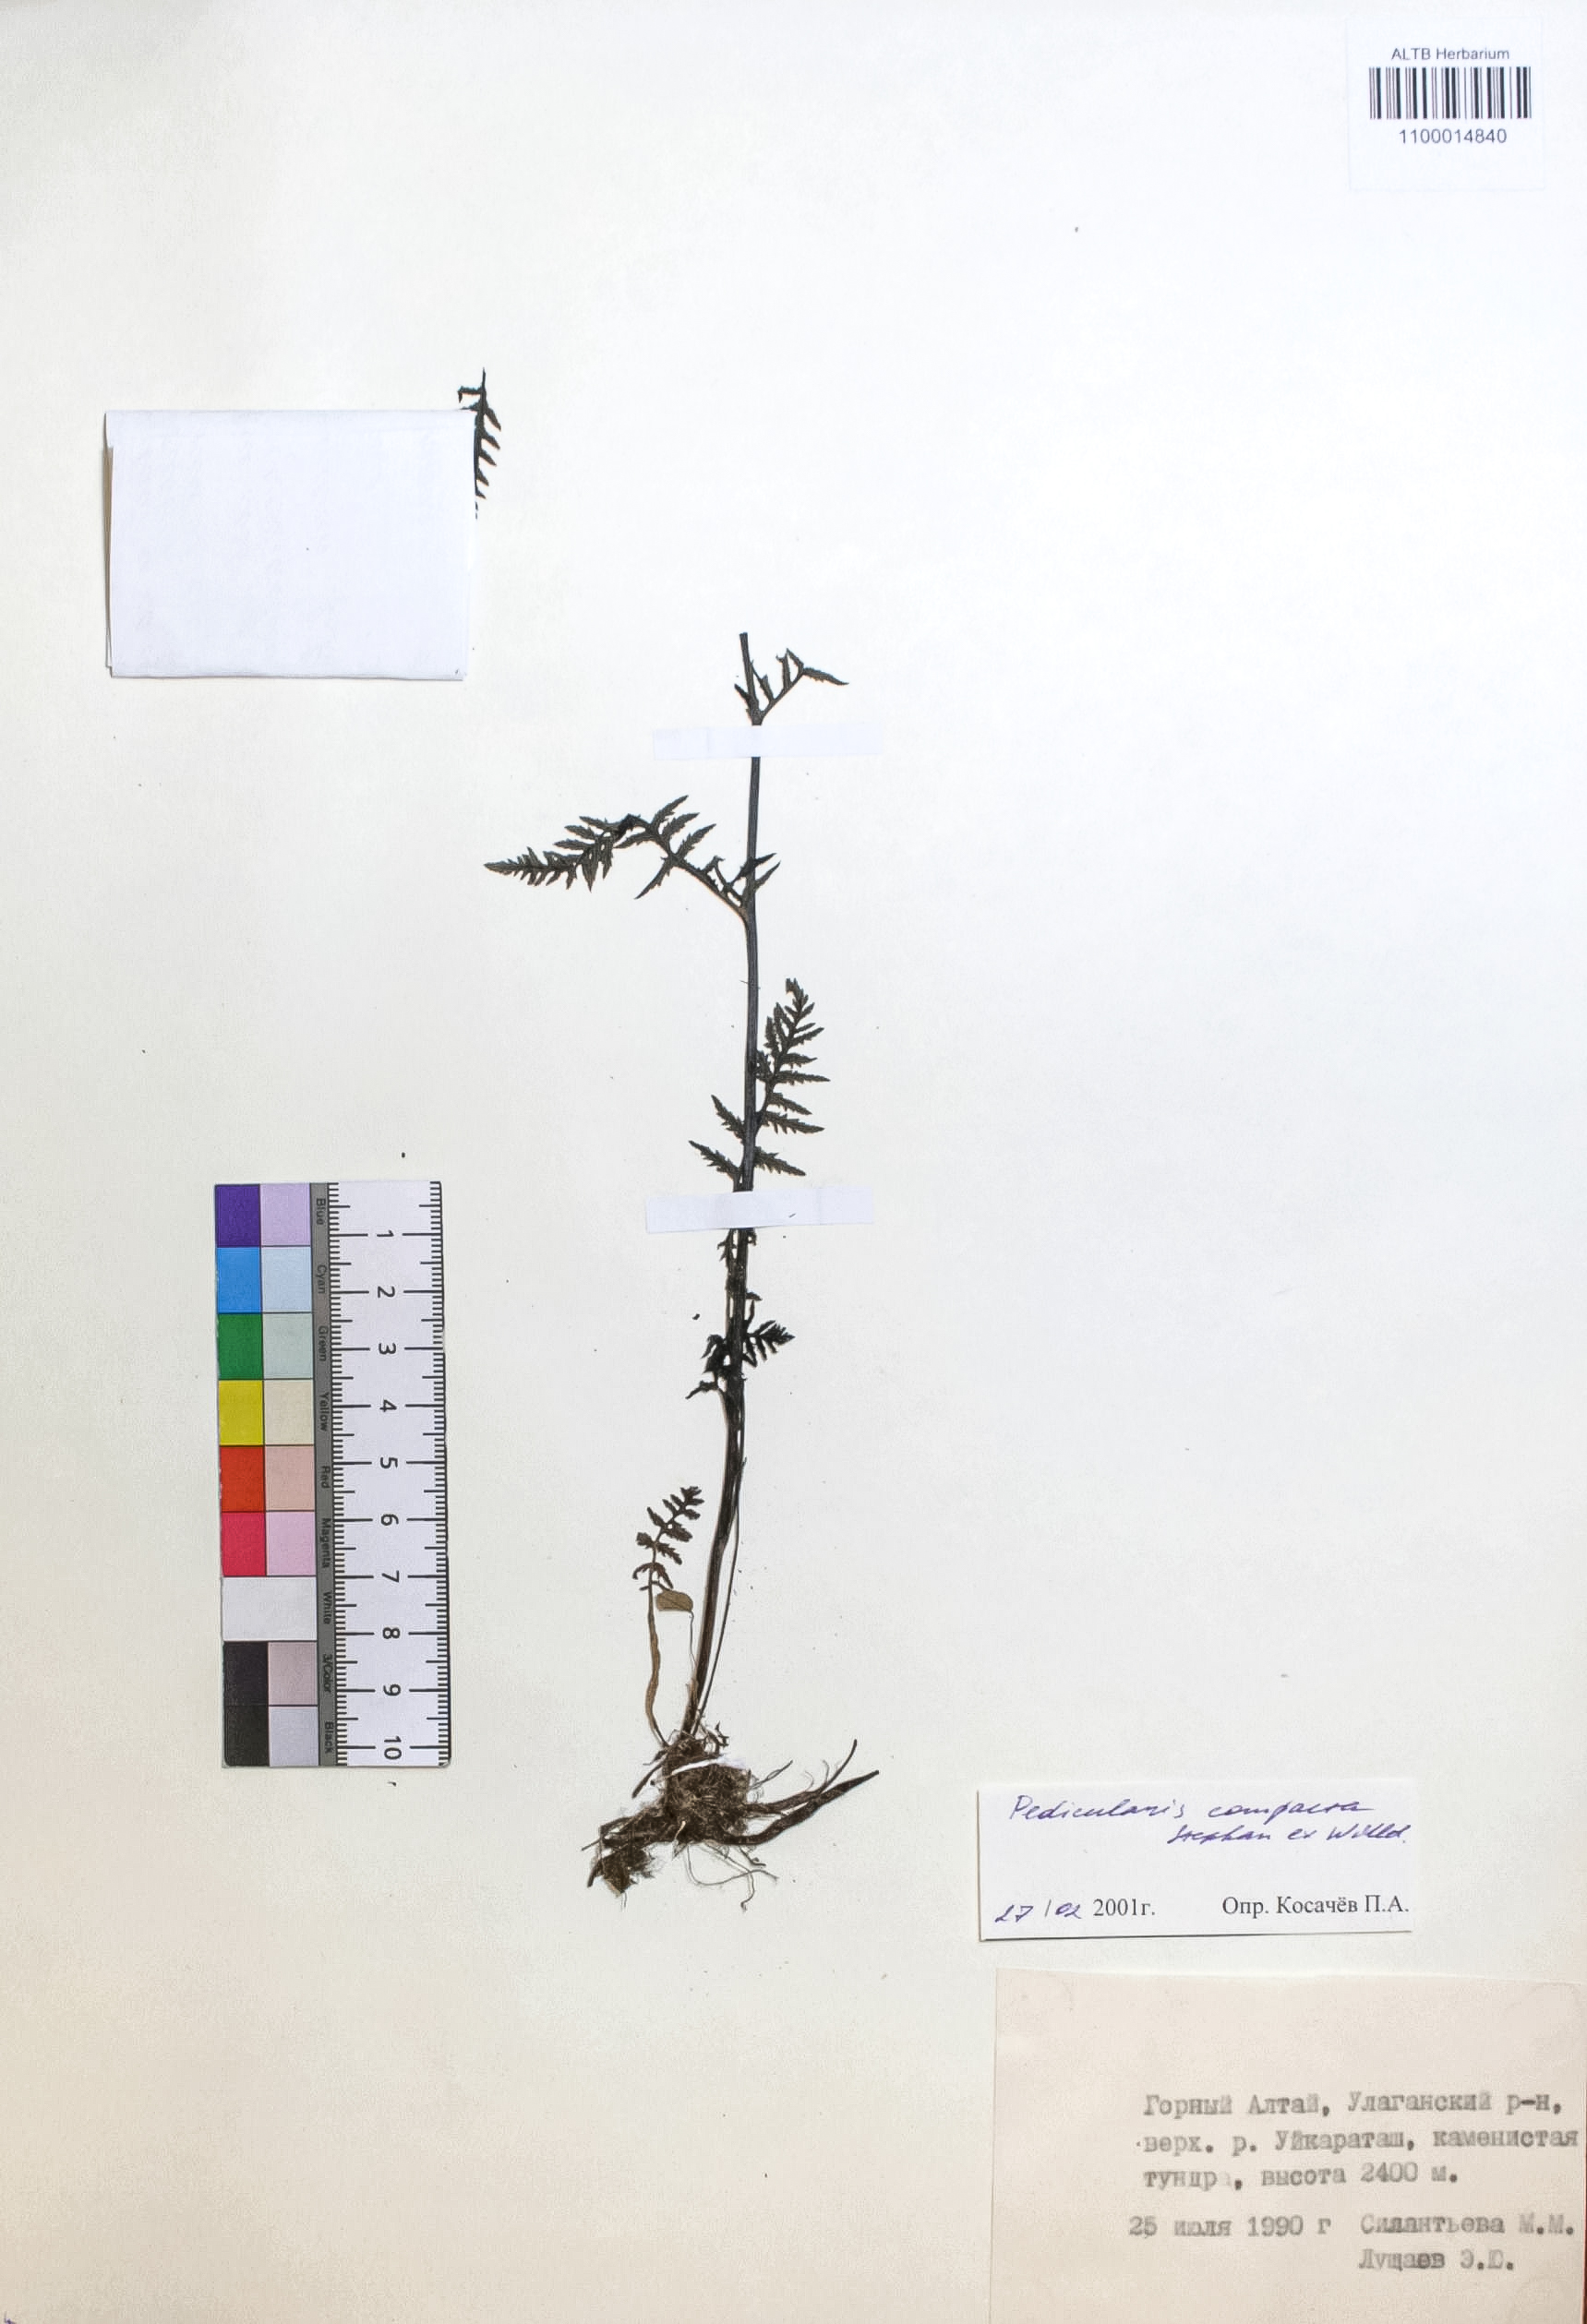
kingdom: Plantae
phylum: Tracheophyta
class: Magnoliopsida
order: Lamiales
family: Orobanchaceae
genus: Pedicularis
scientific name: Pedicularis compacta
